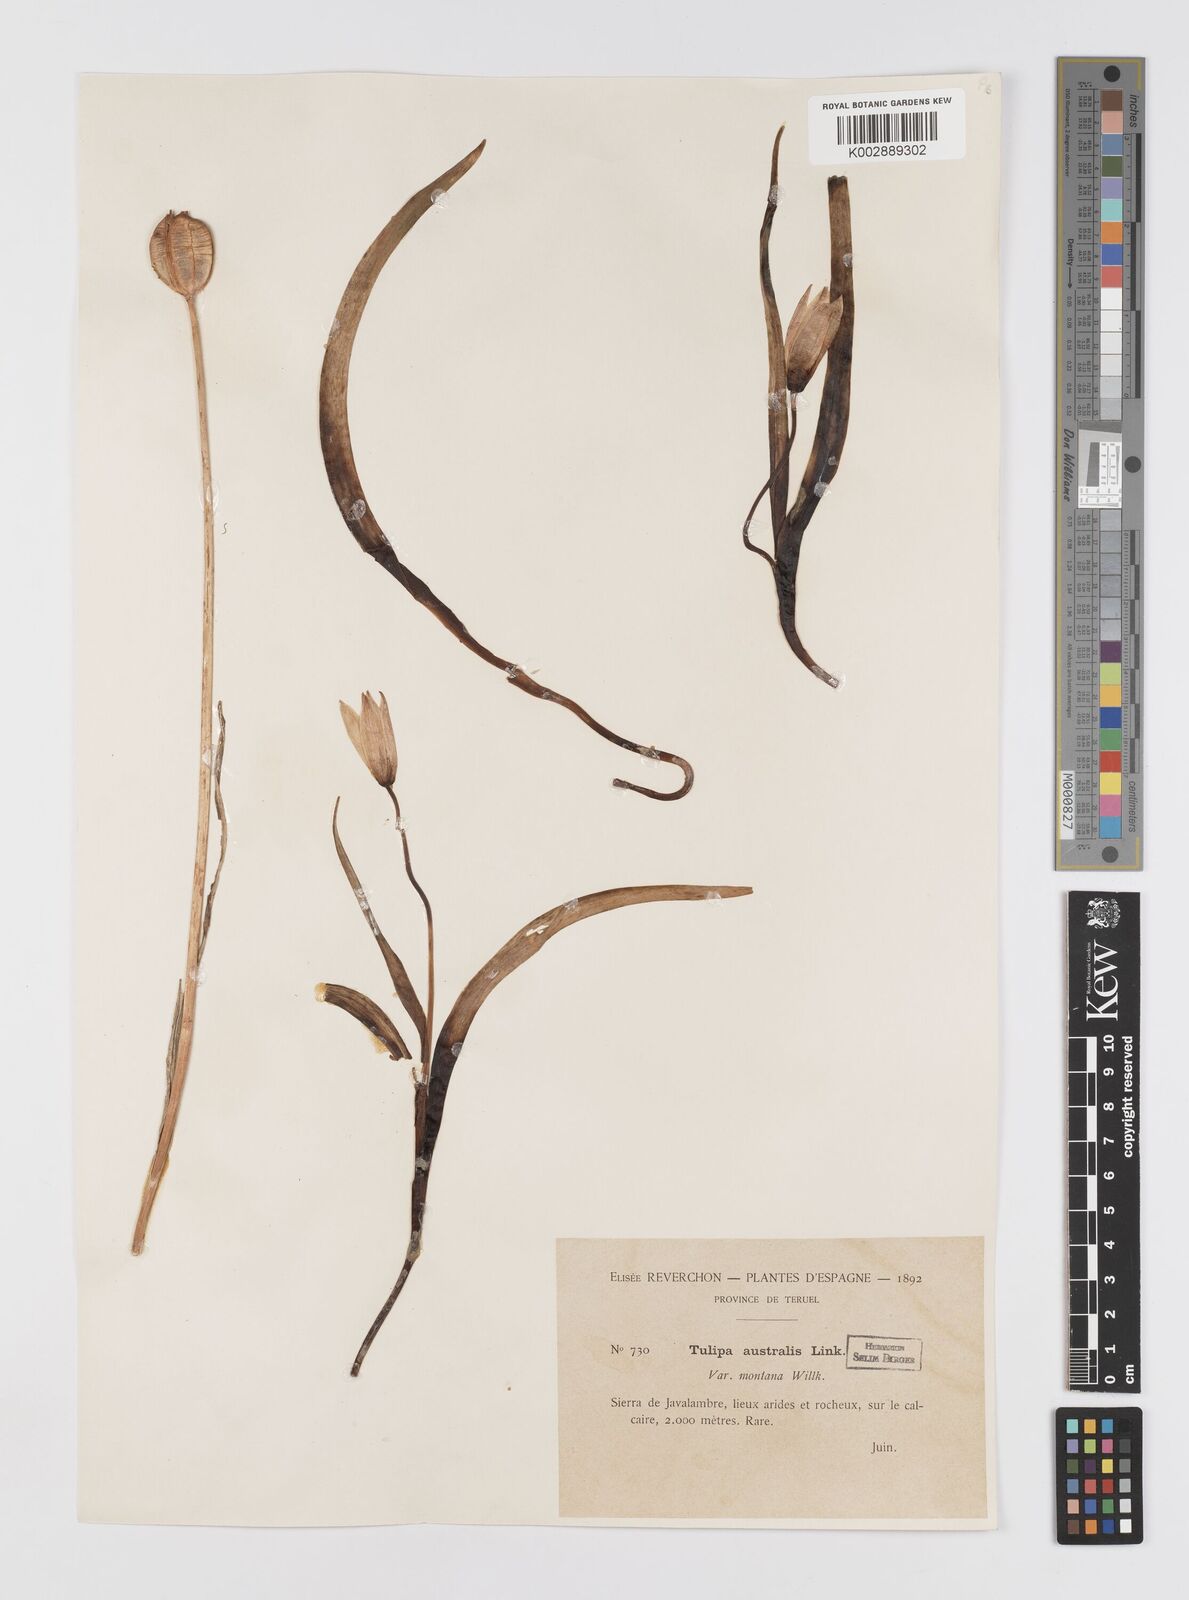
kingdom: Plantae
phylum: Tracheophyta
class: Liliopsida
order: Liliales
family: Liliaceae
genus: Tulipa
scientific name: Tulipa
